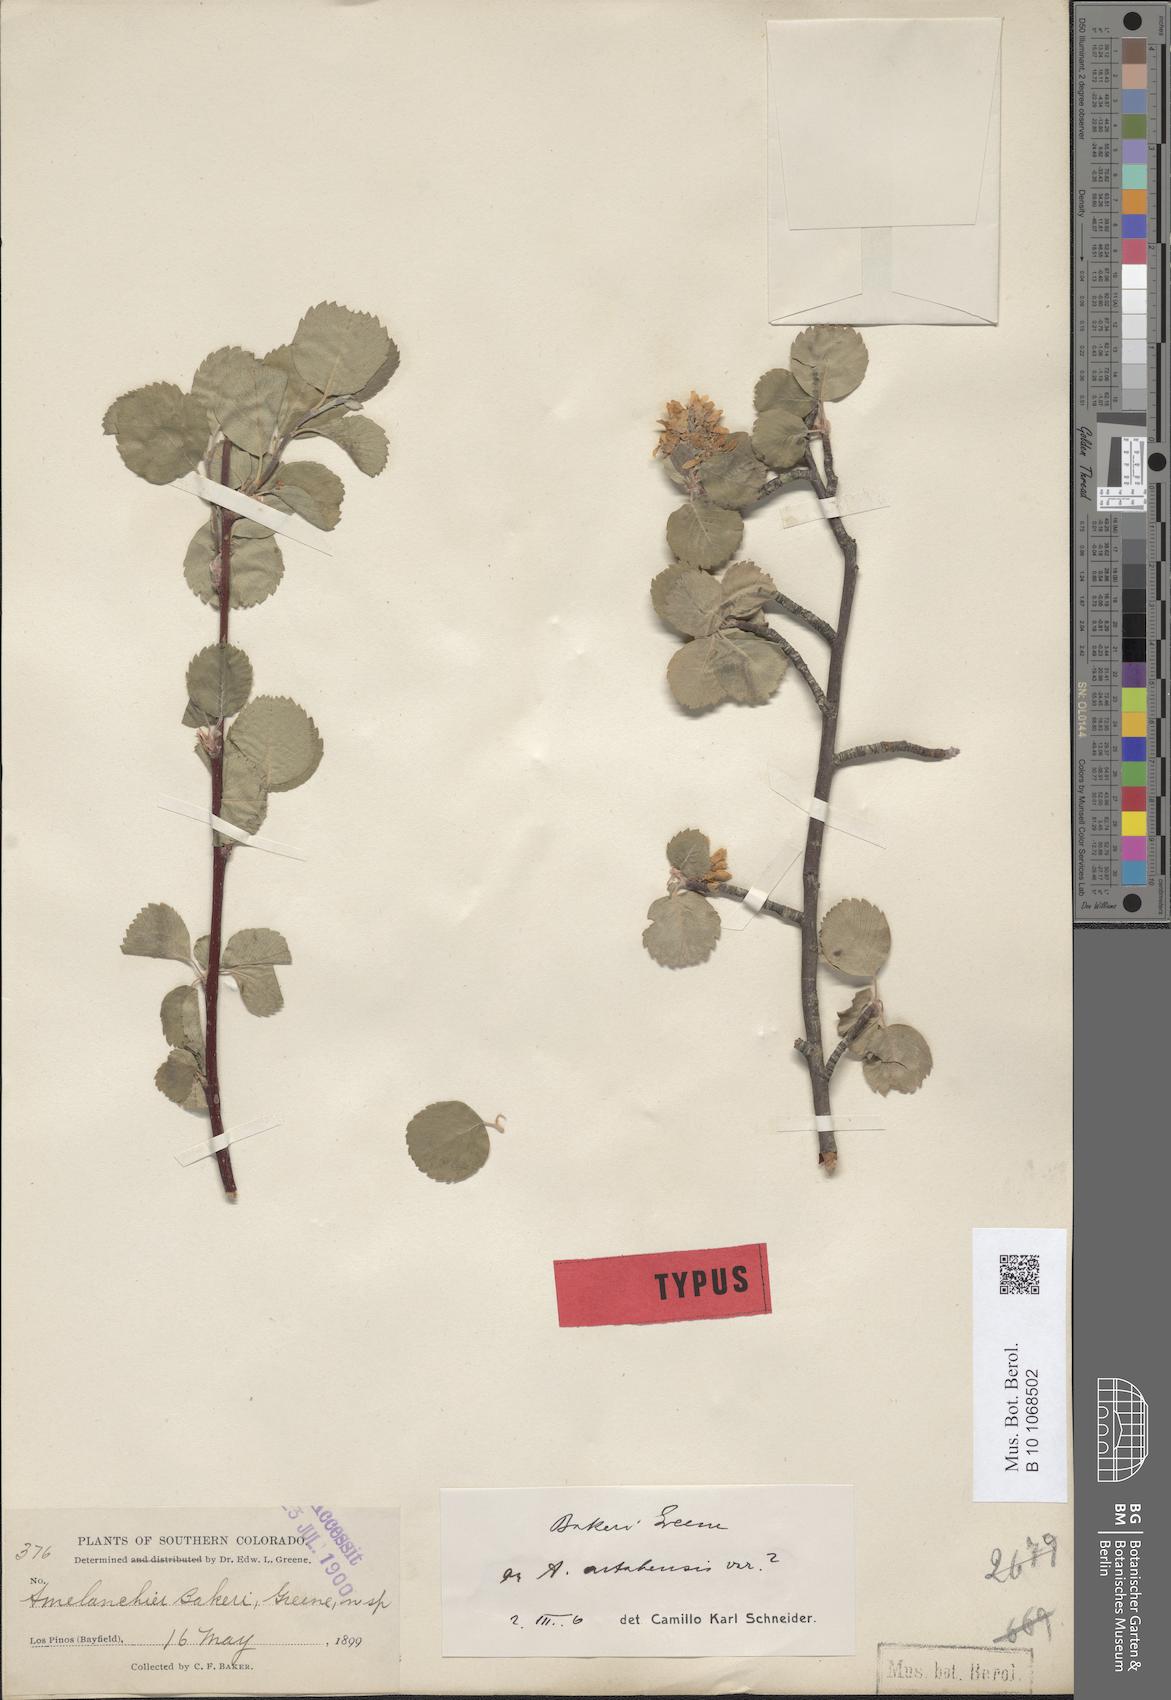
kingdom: Plantae
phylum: Tracheophyta
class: Magnoliopsida
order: Rosales
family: Rosaceae
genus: Amelanchier
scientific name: Amelanchier utahensis
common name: Utah serviceberry
